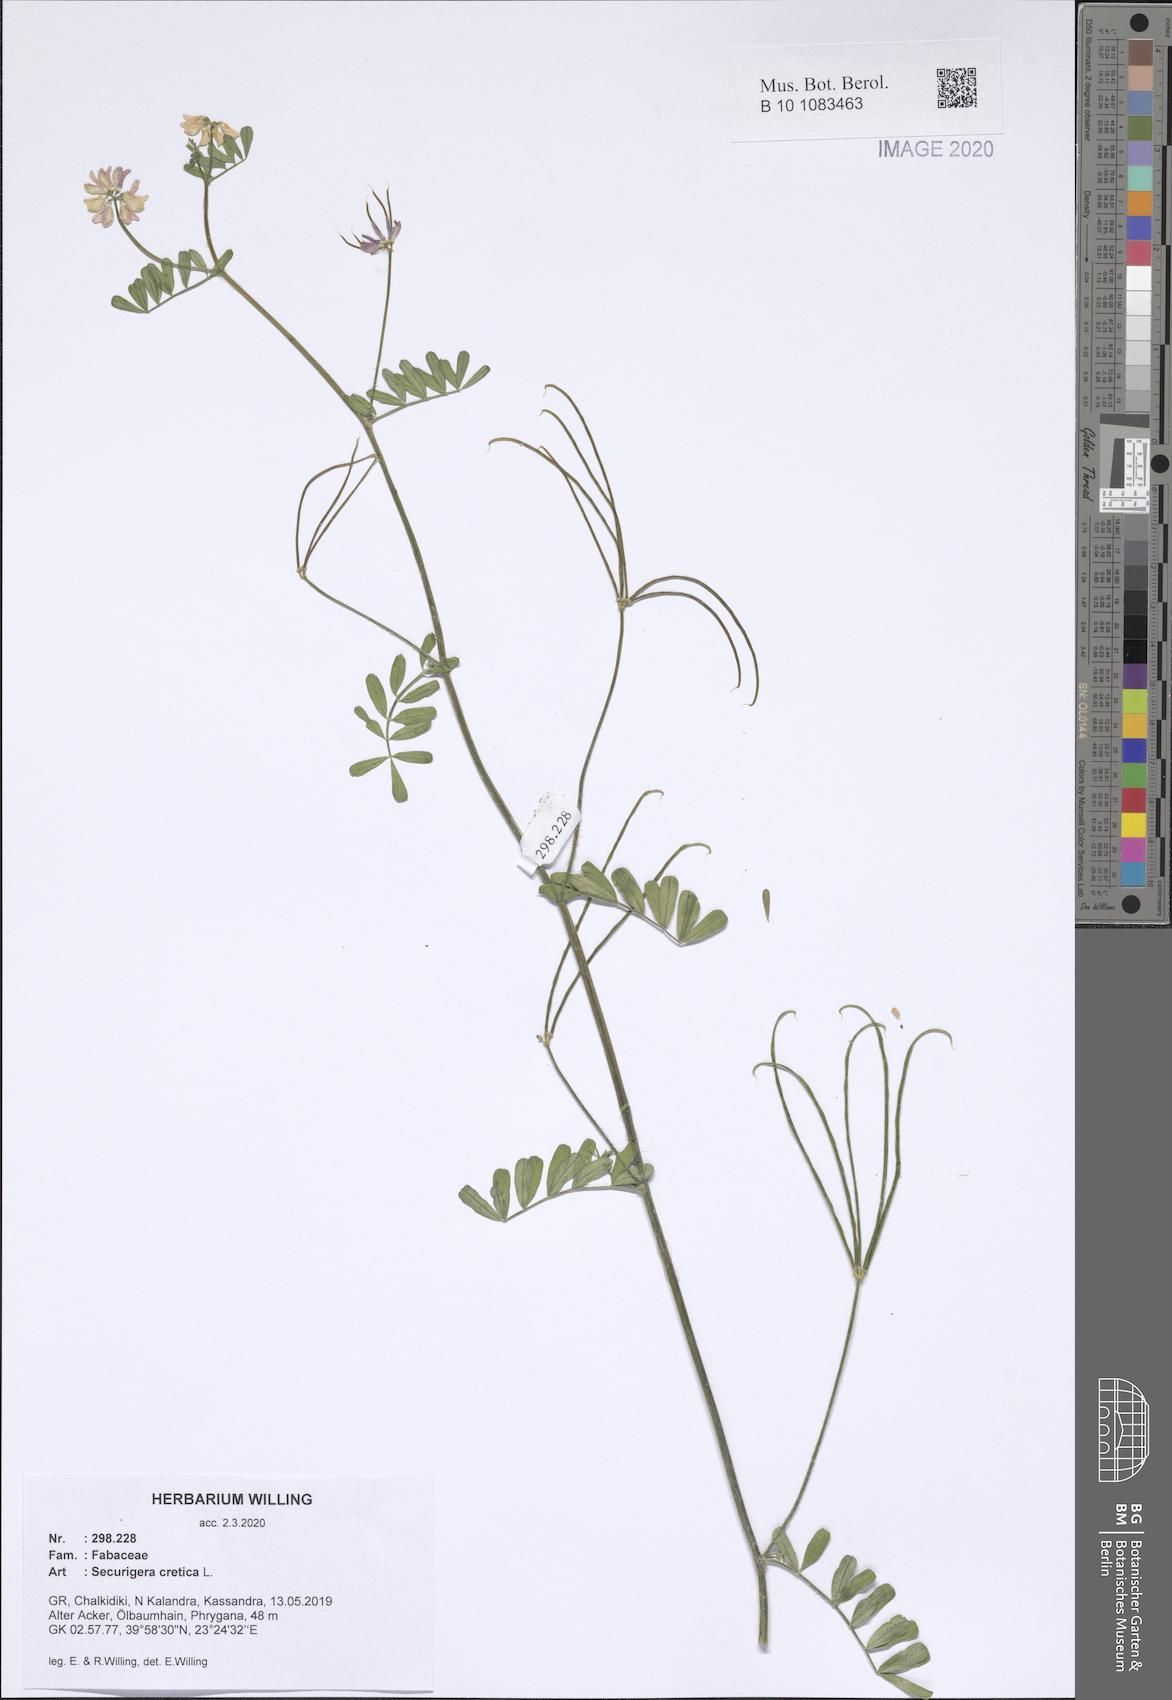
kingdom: Plantae
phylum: Tracheophyta
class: Magnoliopsida
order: Fabales
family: Fabaceae
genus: Coronilla
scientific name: Coronilla cretica
